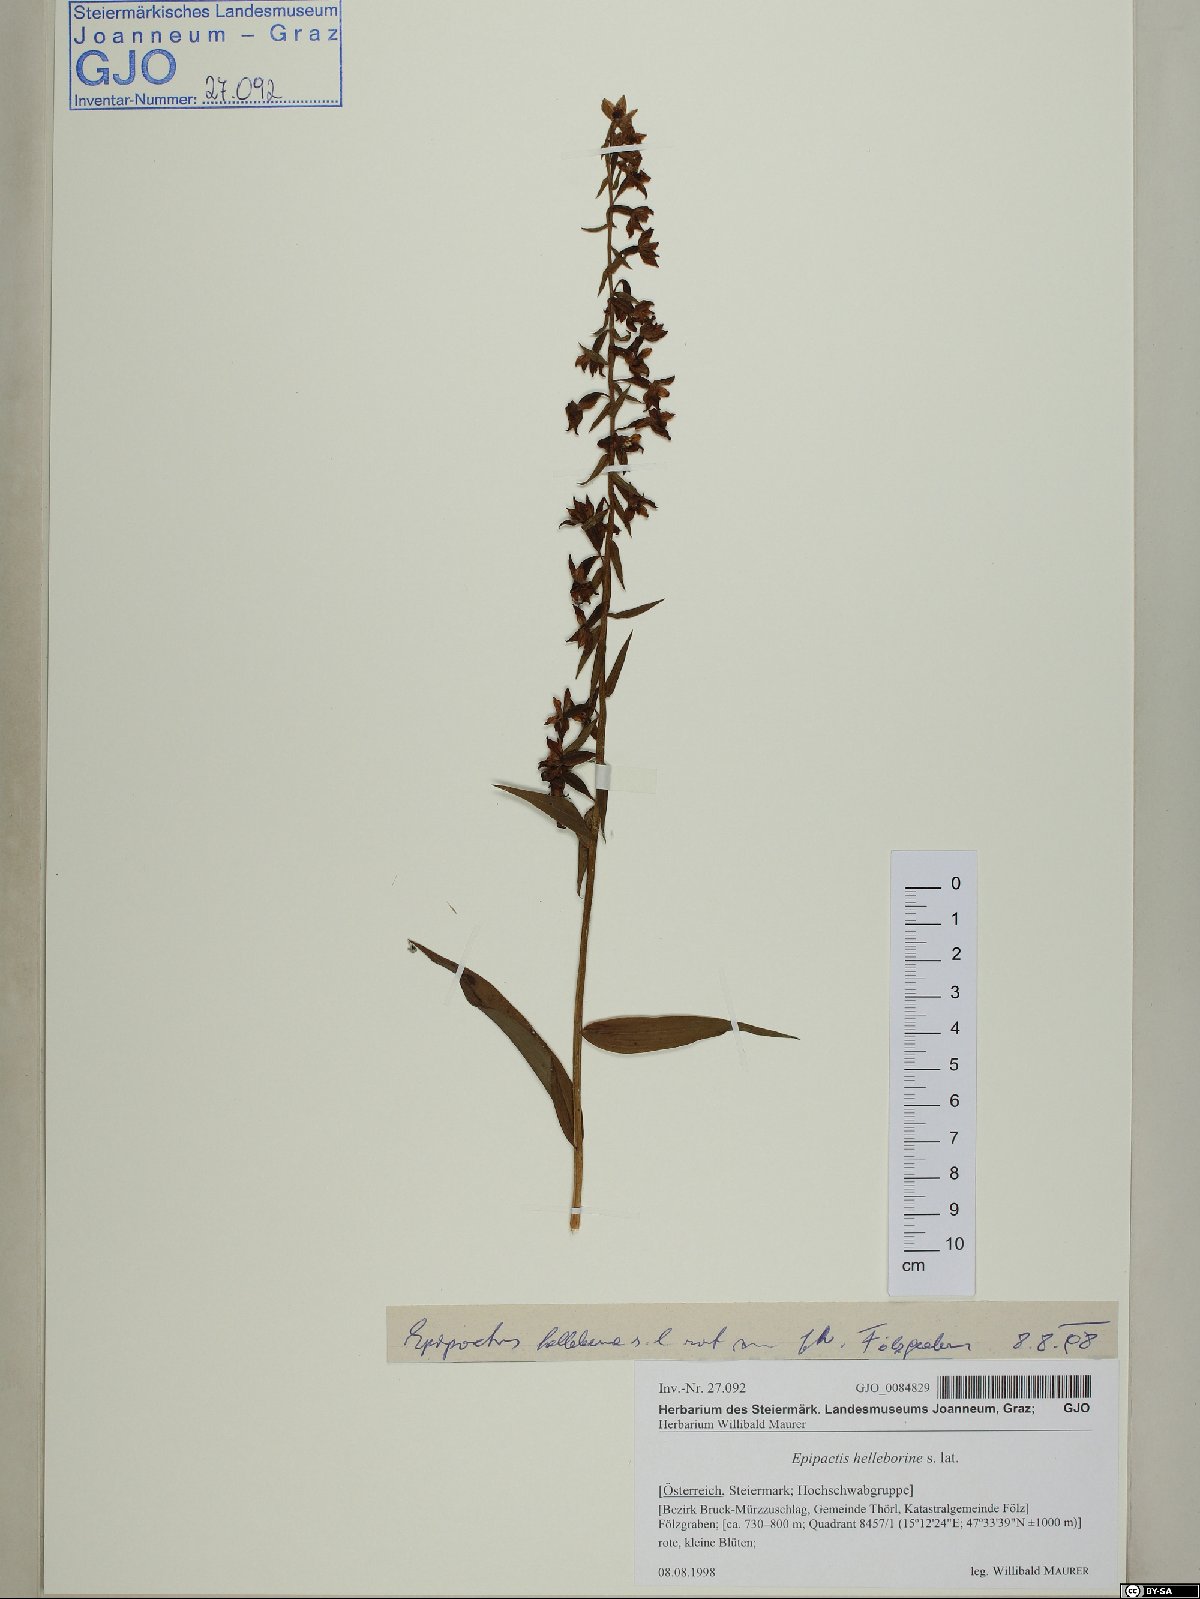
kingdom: Plantae
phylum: Tracheophyta
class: Liliopsida
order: Asparagales
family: Orchidaceae
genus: Epipactis
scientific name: Epipactis helleborine
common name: Broad-leaved helleborine
